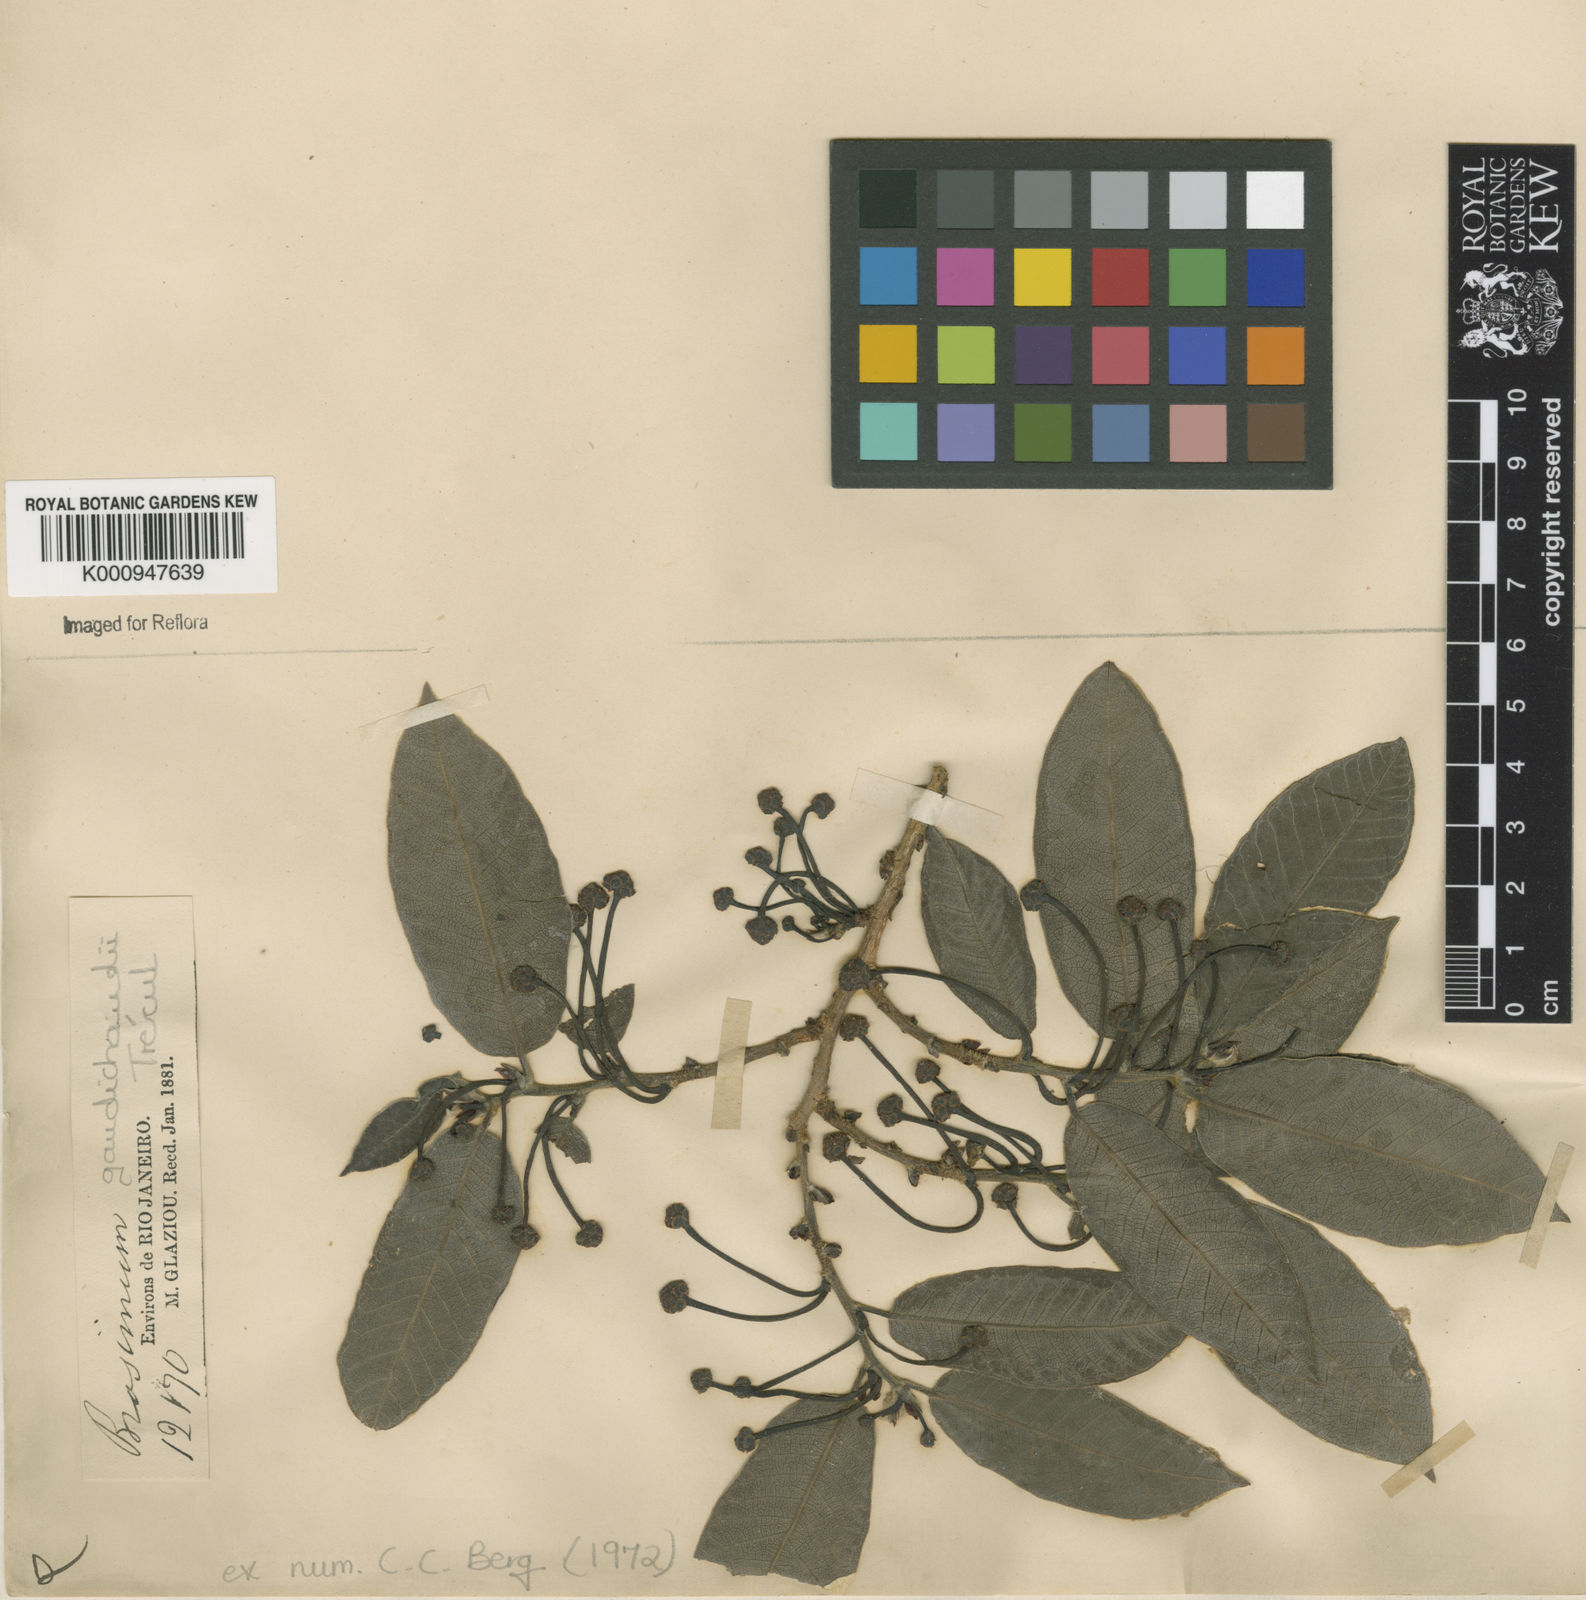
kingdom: Plantae
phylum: Tracheophyta
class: Magnoliopsida
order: Rosales
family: Moraceae
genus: Brosimum
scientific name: Brosimum
